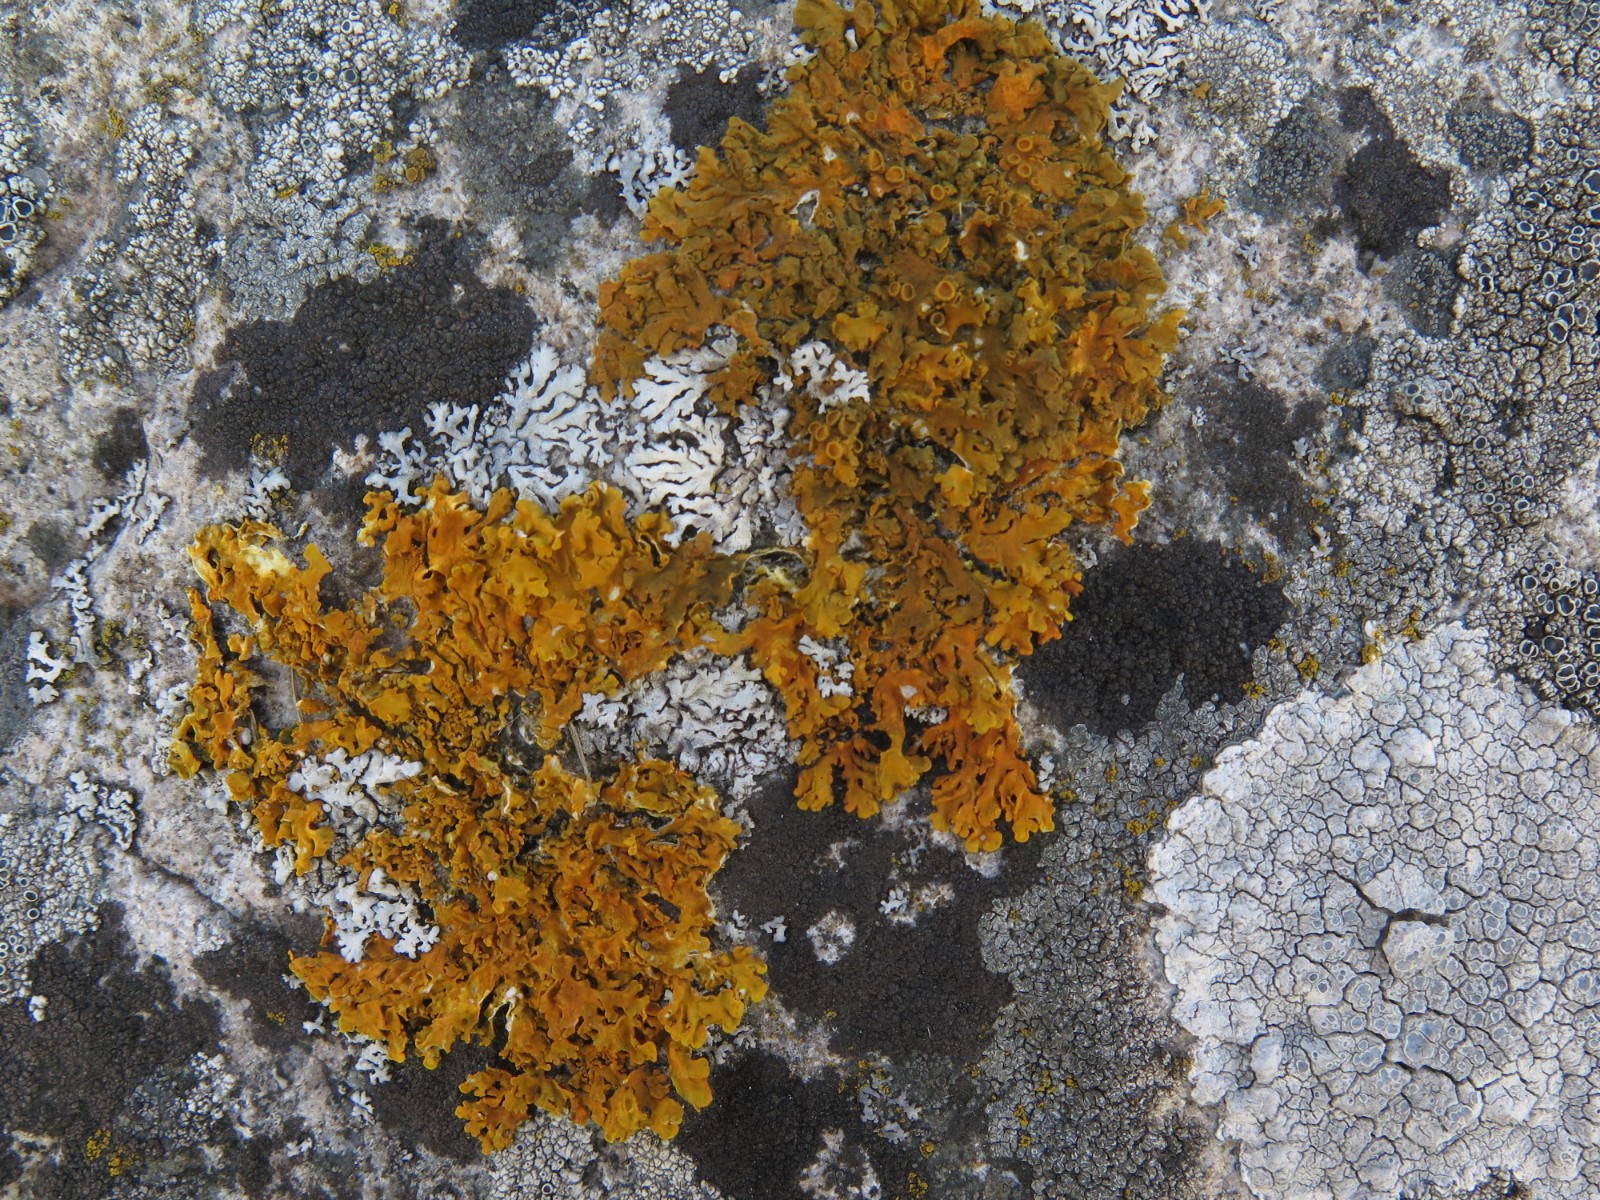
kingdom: Fungi
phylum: Ascomycota
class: Lecanoromycetes
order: Teloschistales
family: Teloschistaceae
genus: Xanthoria
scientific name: Xanthoria parietina
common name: almindelig væggelav
